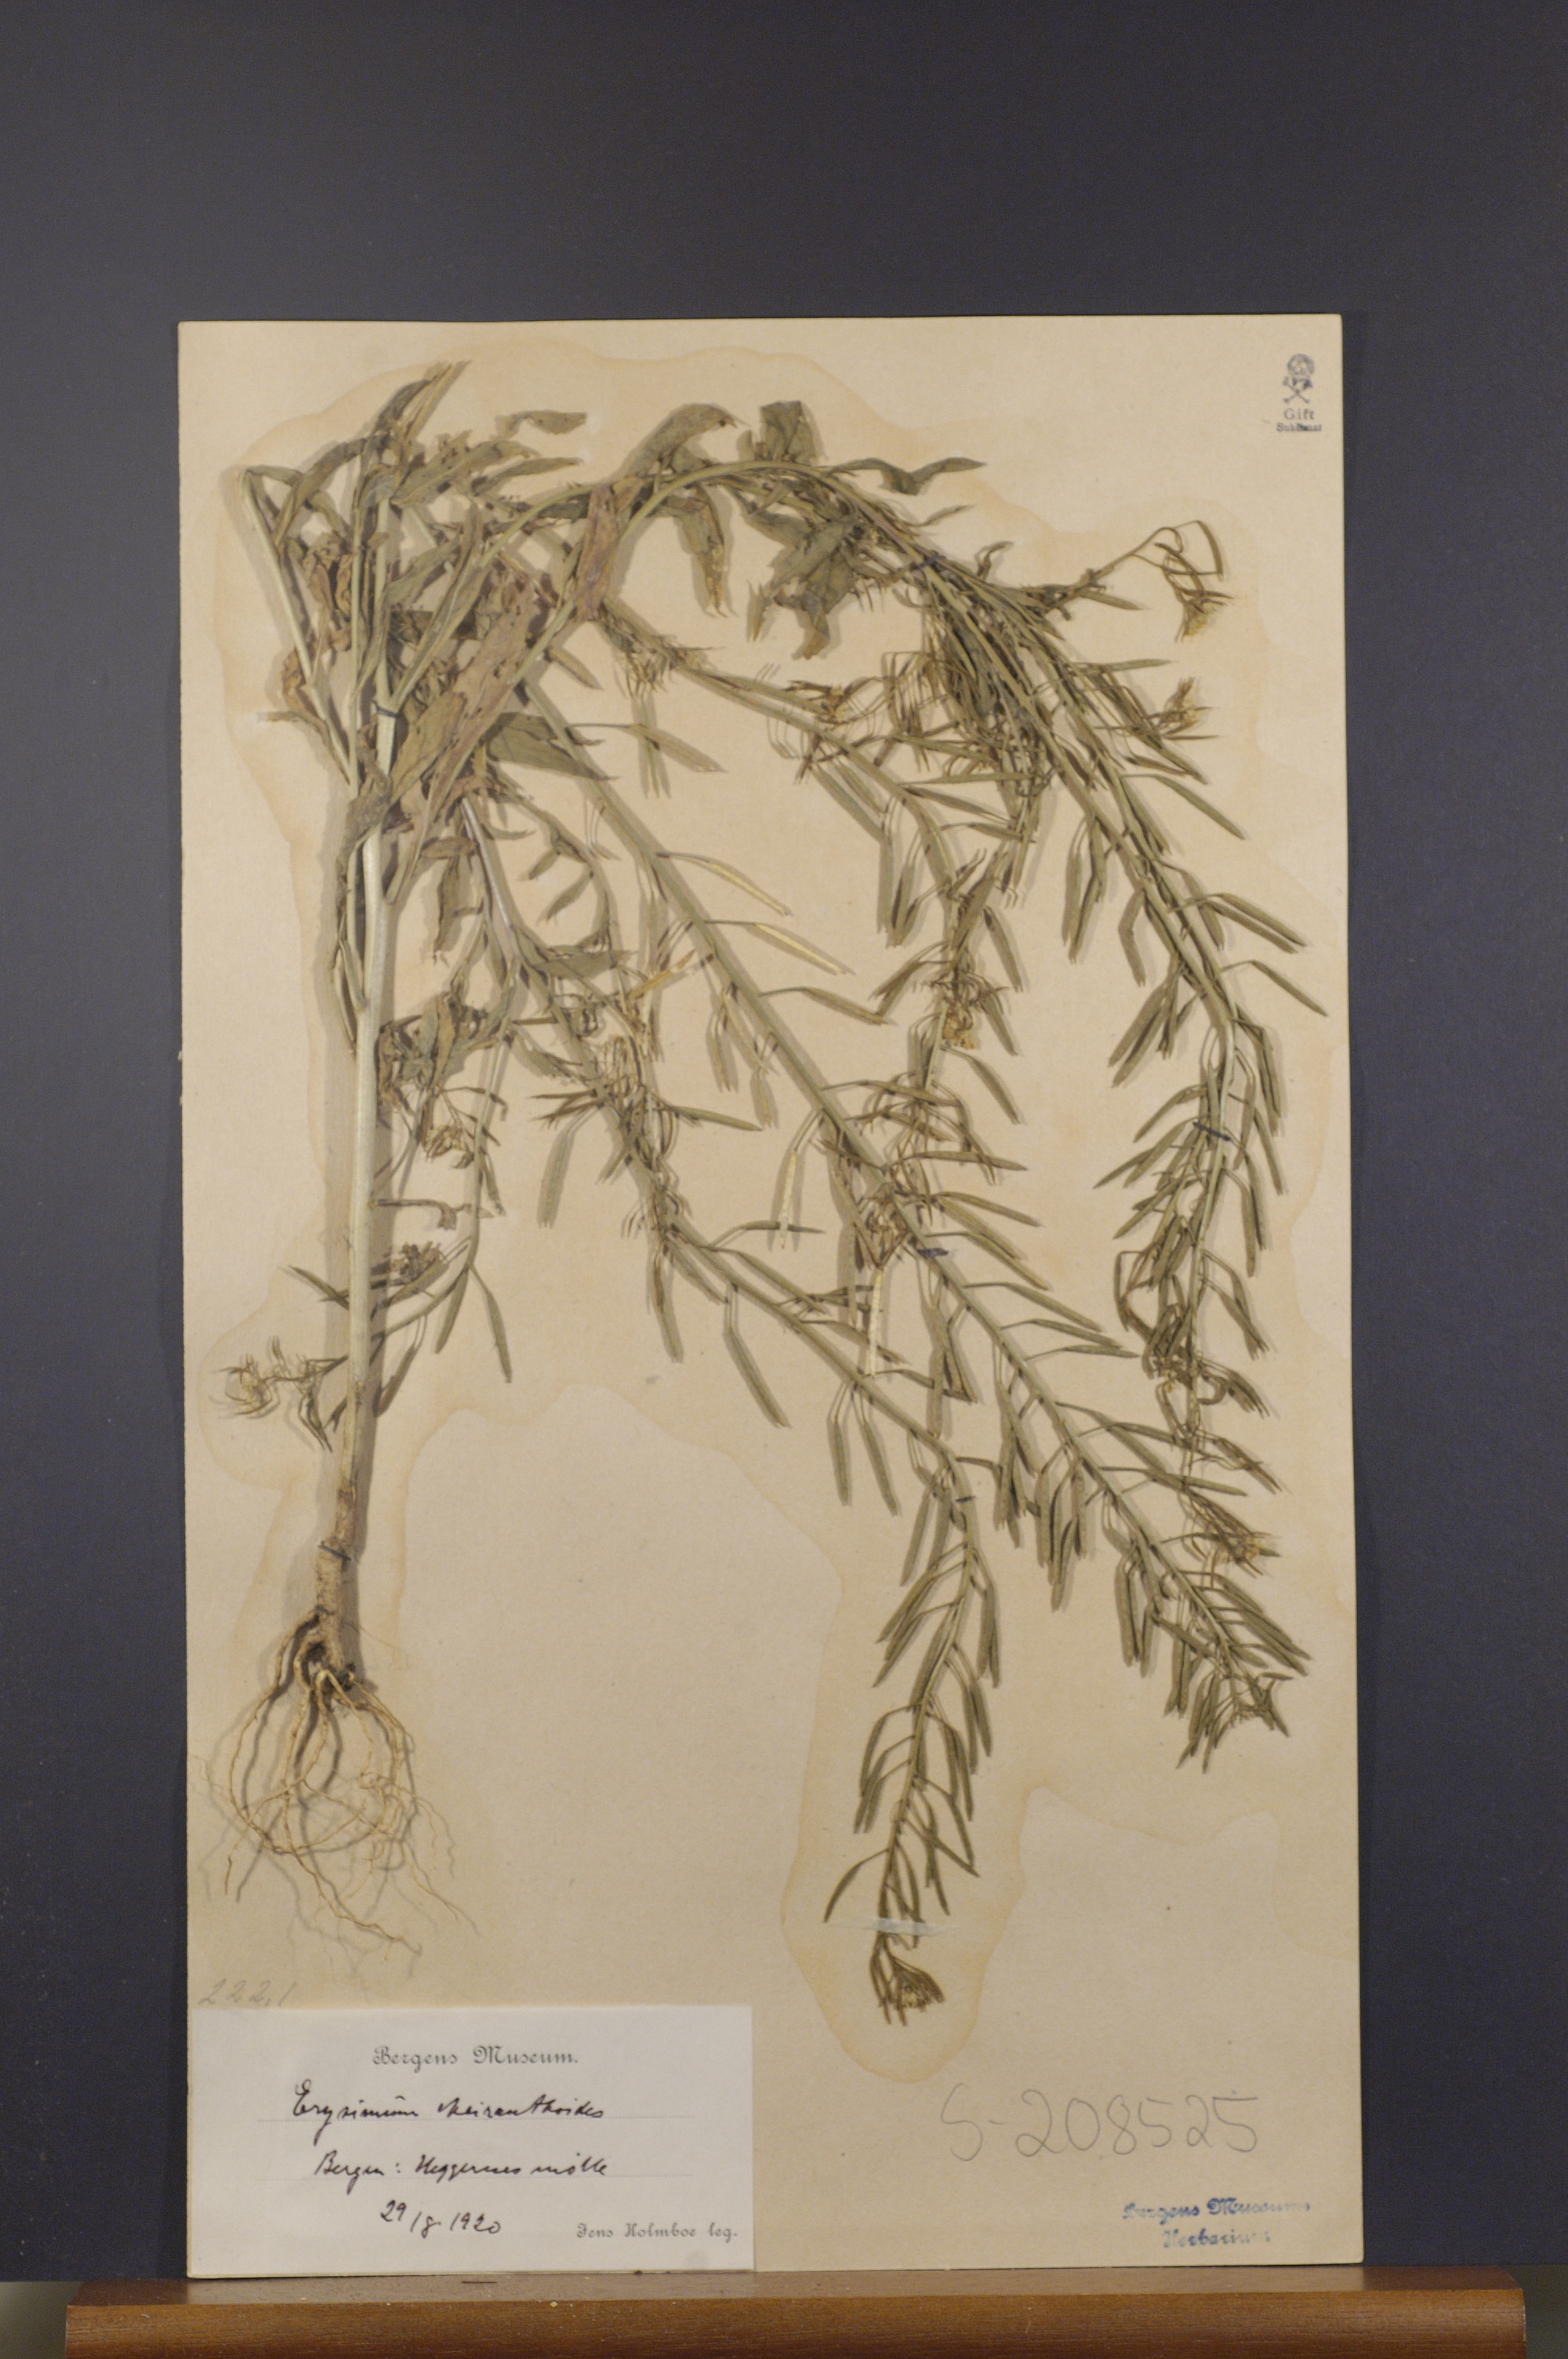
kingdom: Plantae
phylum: Tracheophyta
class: Magnoliopsida
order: Brassicales
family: Brassicaceae
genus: Erysimum
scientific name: Erysimum cheiranthoides
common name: Treacle mustard
